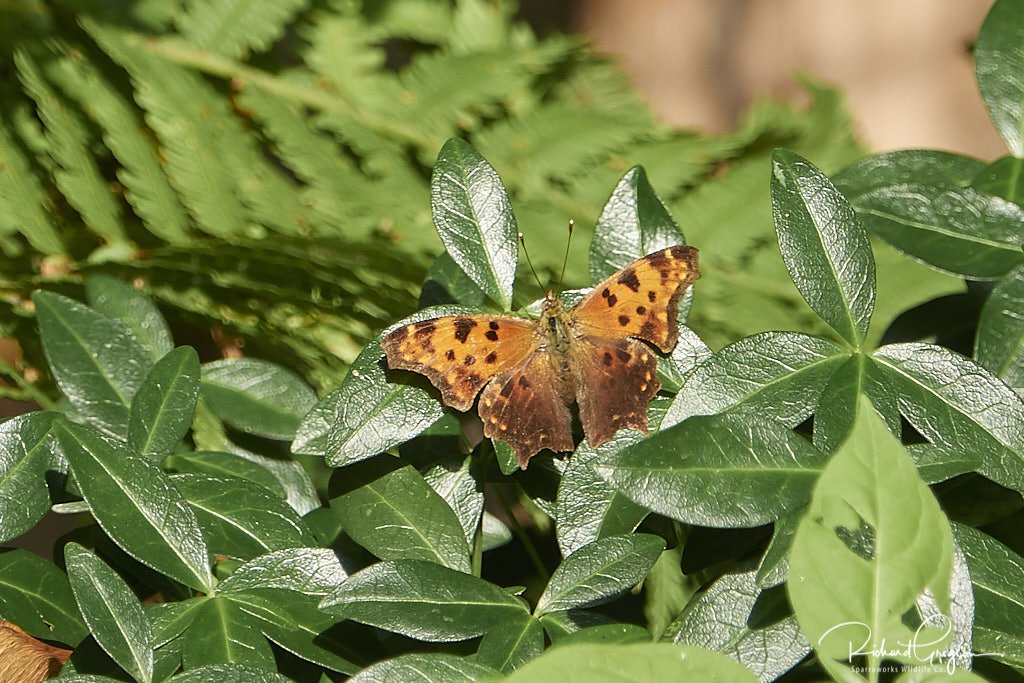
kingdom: Animalia
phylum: Arthropoda
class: Insecta
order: Lepidoptera
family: Nymphalidae
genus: Polygonia
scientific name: Polygonia comma
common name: Eastern Comma
